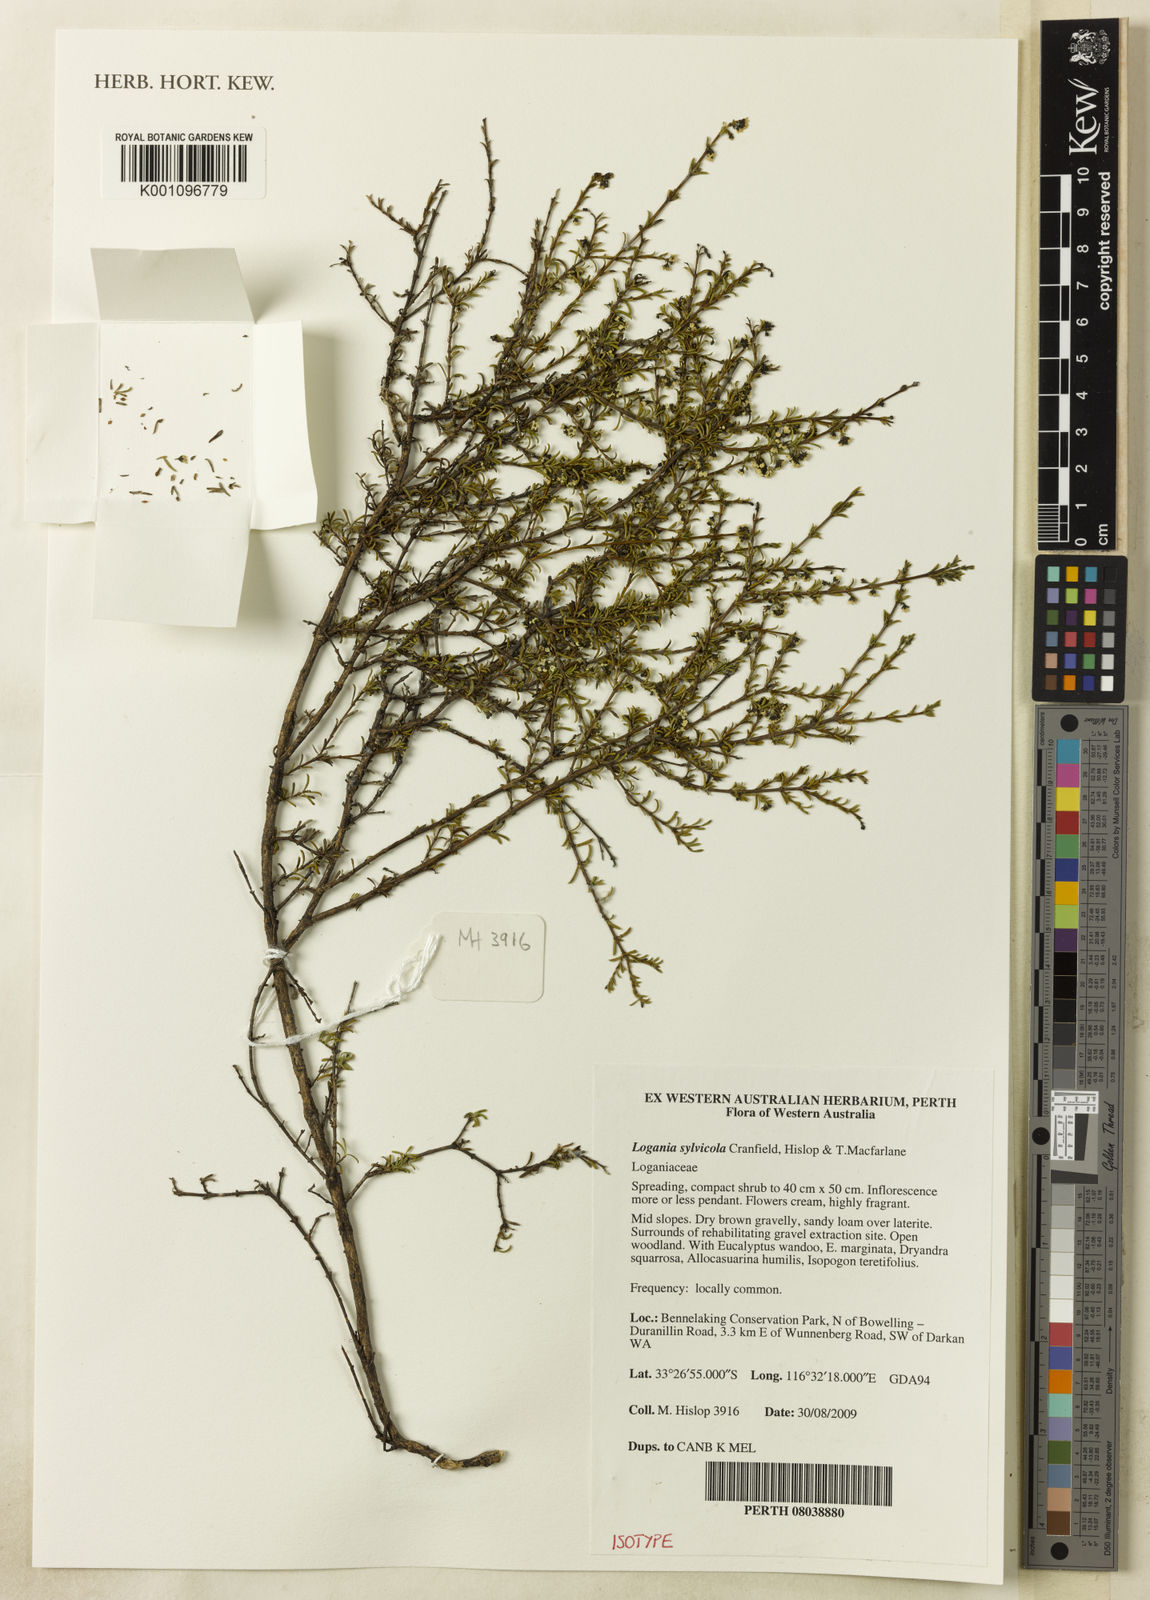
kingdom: Plantae
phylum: Tracheophyta
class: Magnoliopsida
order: Gentianales
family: Loganiaceae
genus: Logania
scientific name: Logania sylvicola
